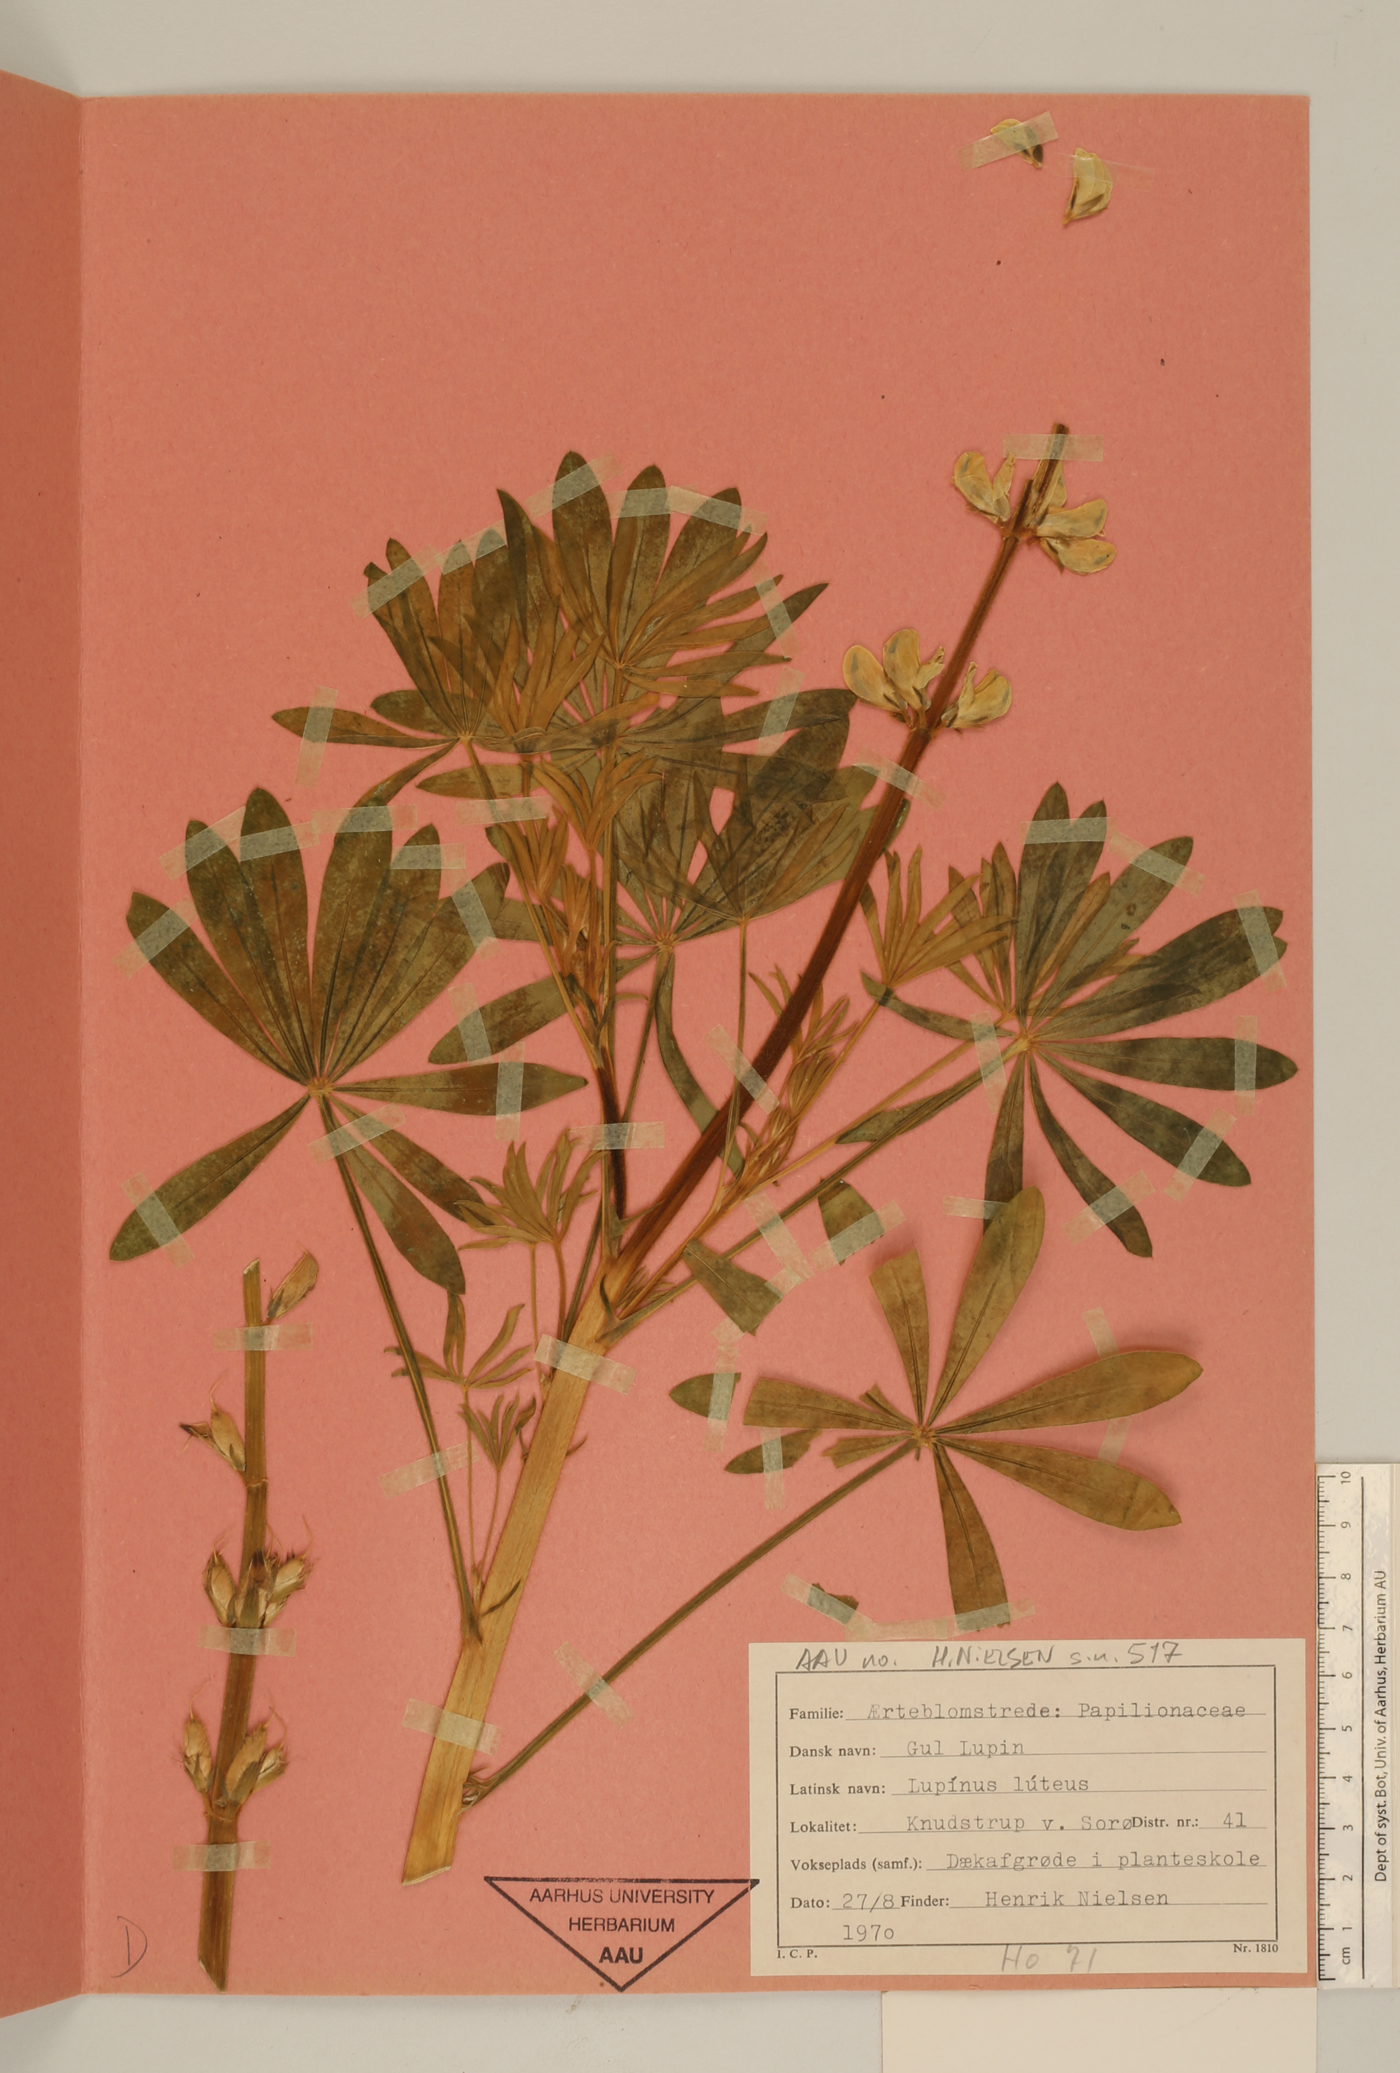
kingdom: Plantae
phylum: Tracheophyta
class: Magnoliopsida
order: Fabales
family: Fabaceae
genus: Lupinus
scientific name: Lupinus luteus
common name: European yellow lupine
